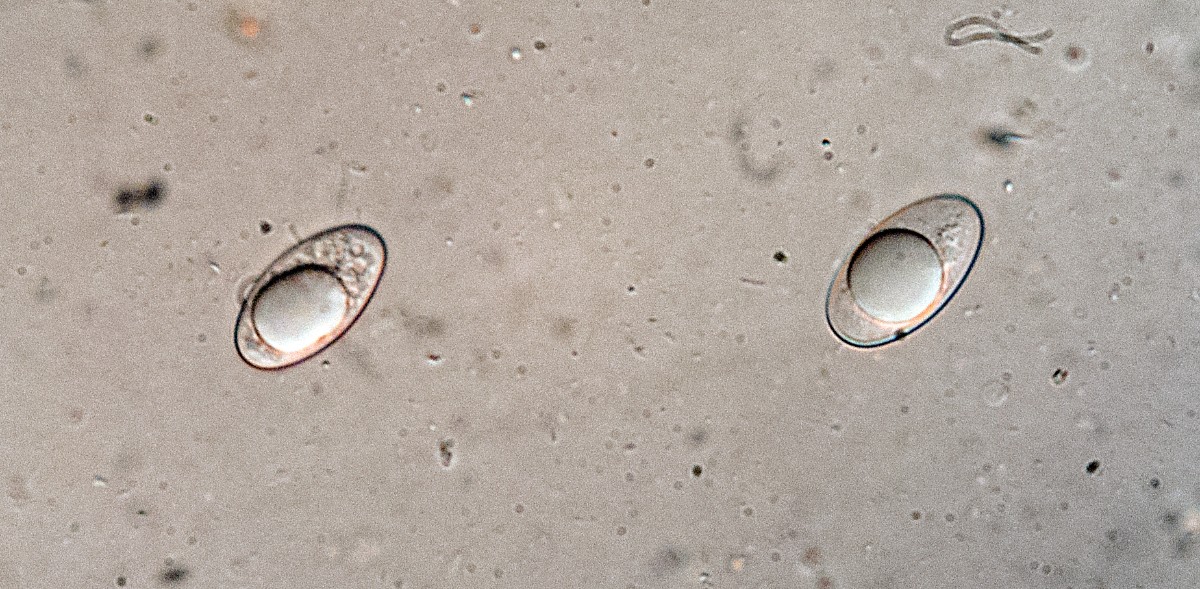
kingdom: Fungi
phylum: Ascomycota
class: Pezizomycetes
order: Pezizales
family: Pyronemataceae
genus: Geopora
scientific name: Geopora tenuis
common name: frit jordbæger
